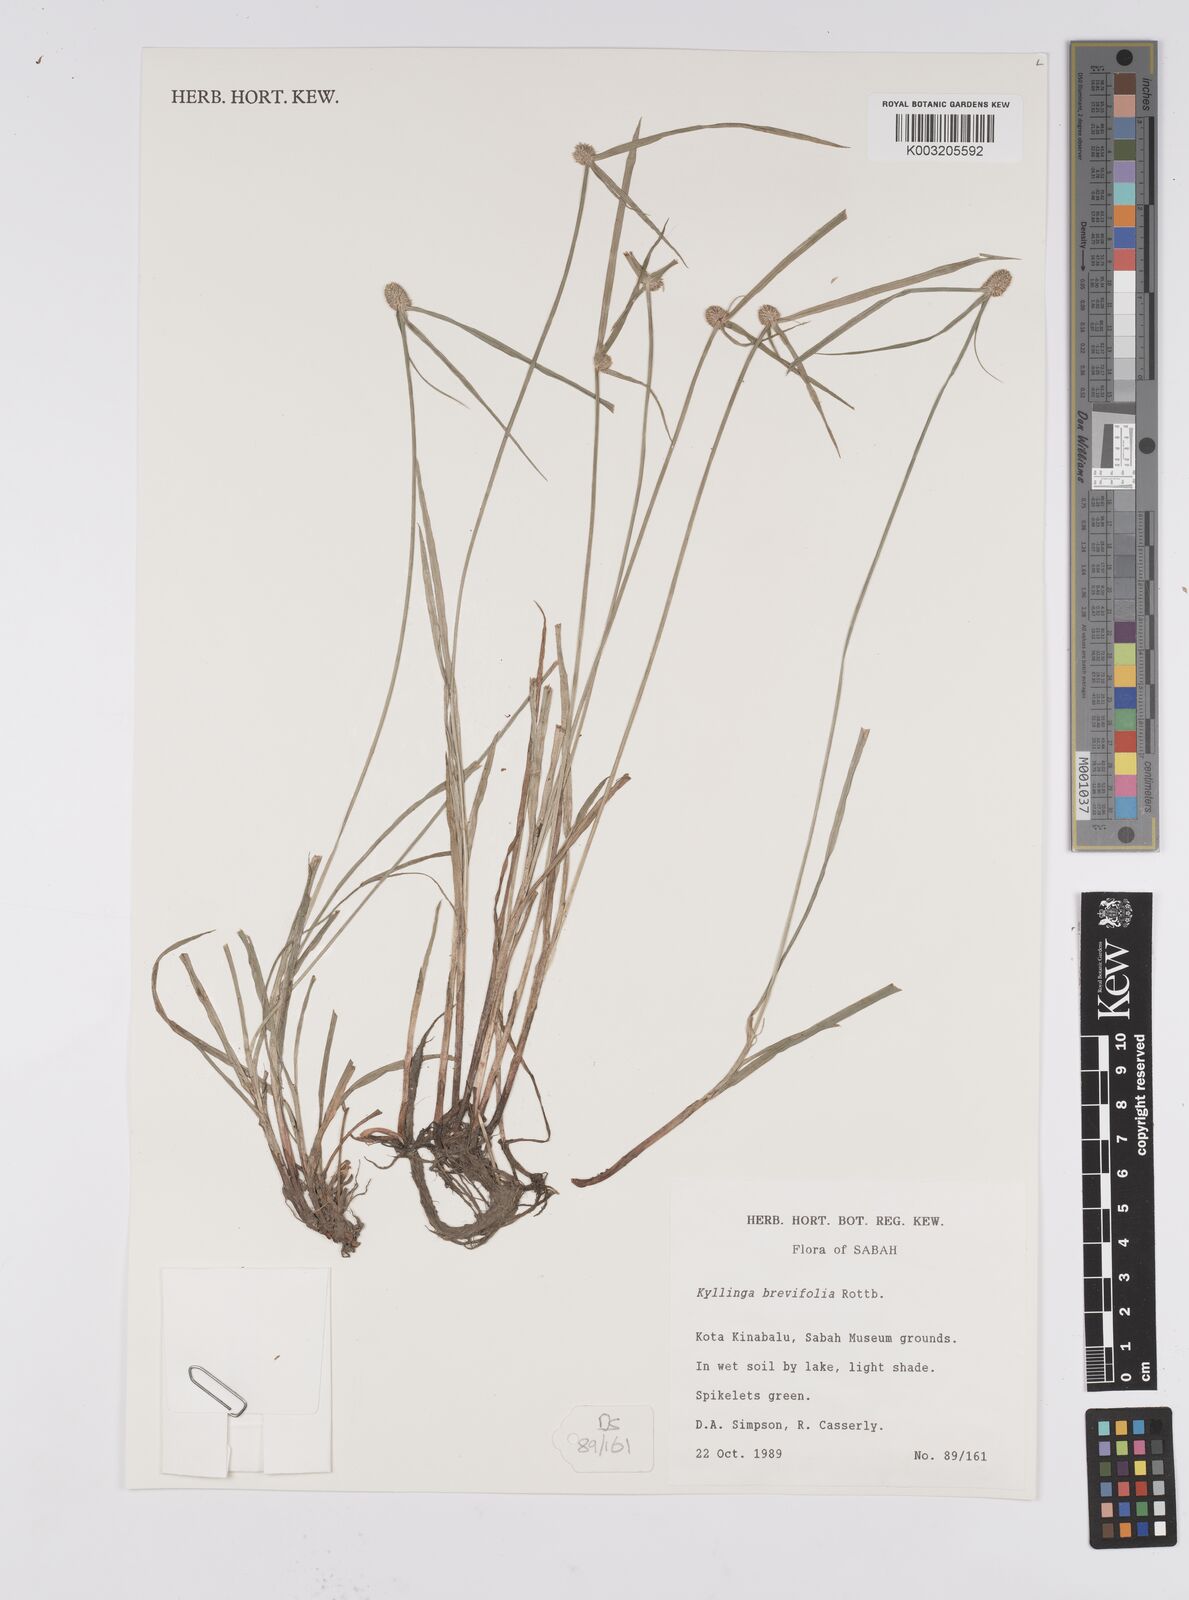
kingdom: Plantae
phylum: Tracheophyta
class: Liliopsida
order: Poales
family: Cyperaceae
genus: Cyperus
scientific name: Cyperus melanospermus
